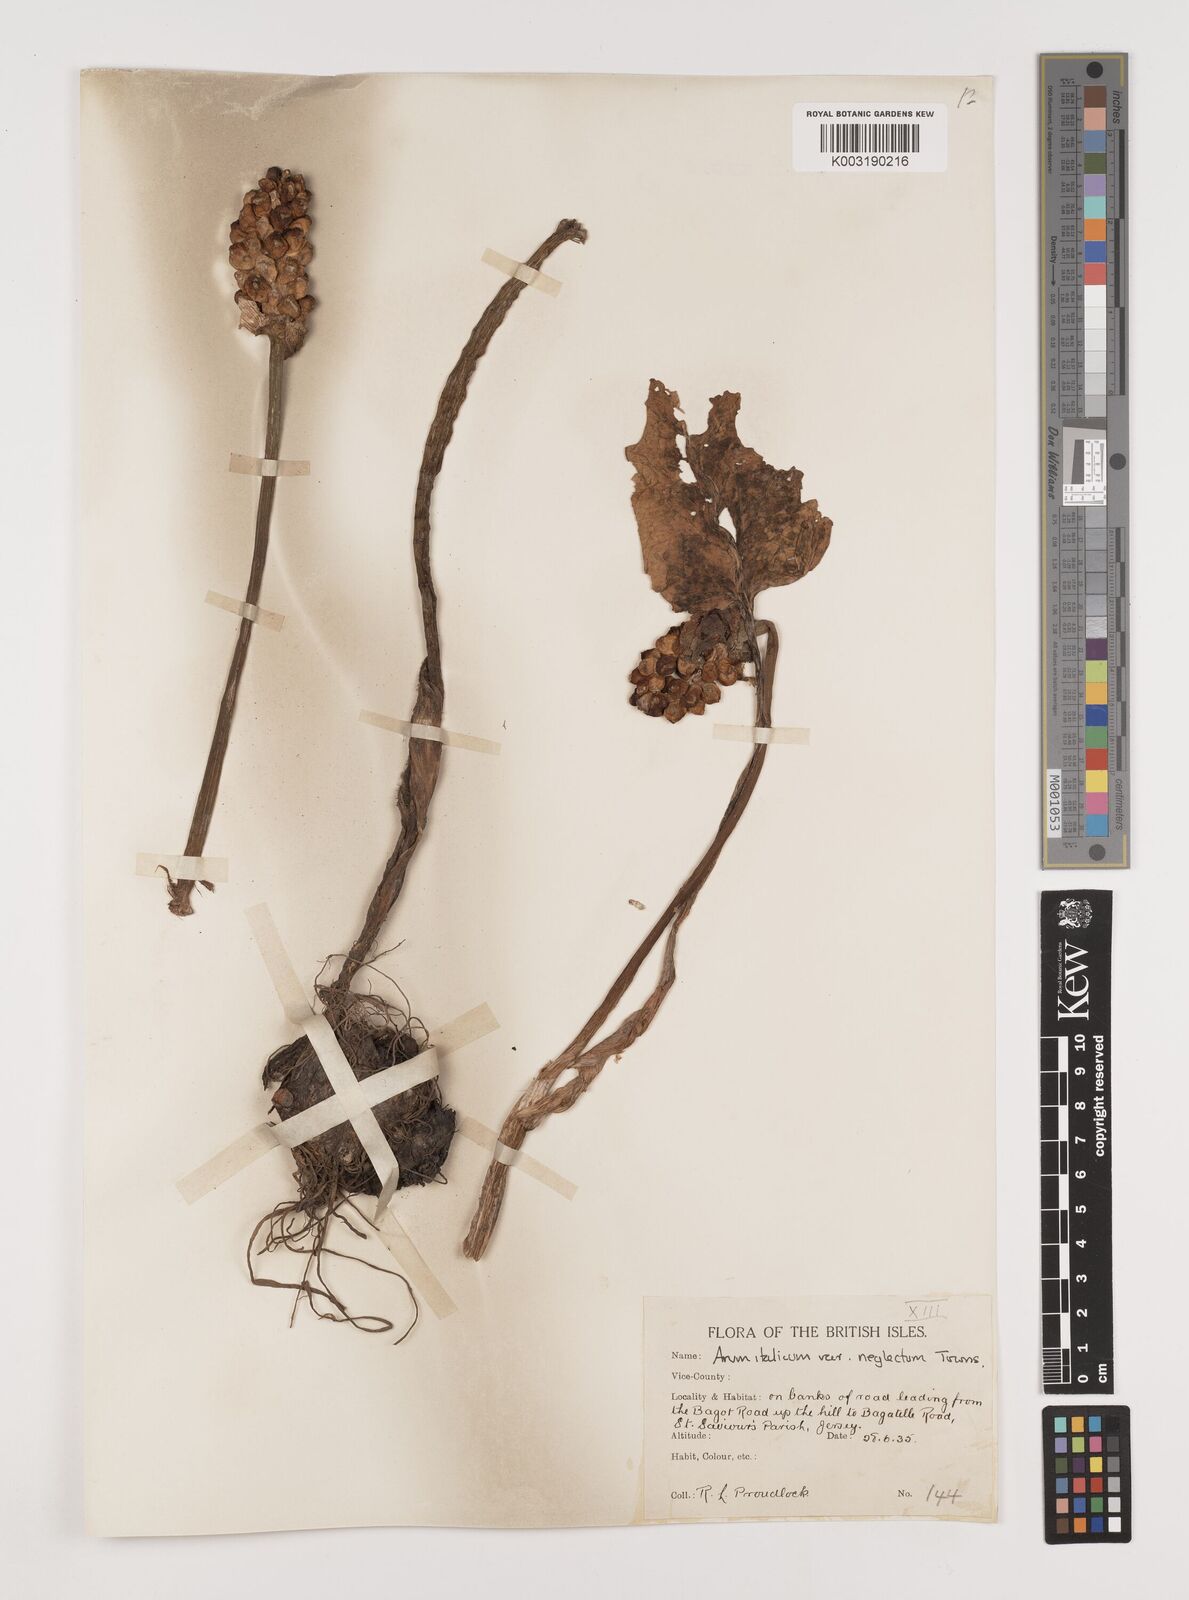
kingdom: Plantae
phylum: Tracheophyta
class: Liliopsida
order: Alismatales
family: Araceae
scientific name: Araceae
